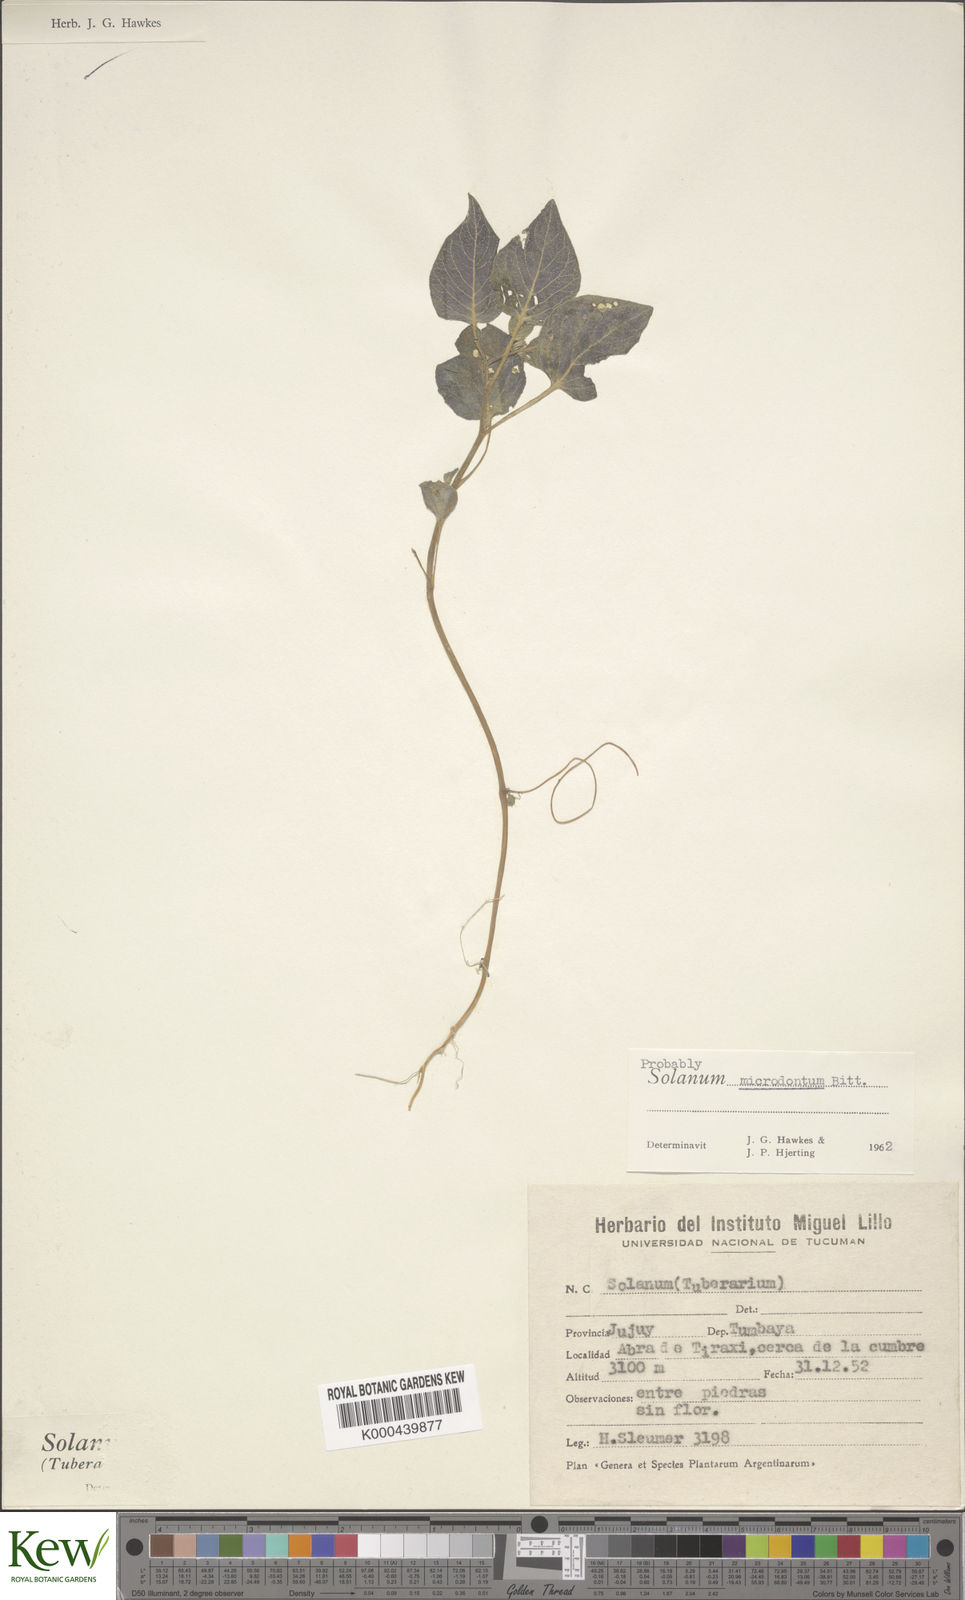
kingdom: Plantae
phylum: Tracheophyta
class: Magnoliopsida
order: Solanales
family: Solanaceae
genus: Solanum
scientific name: Solanum microdontum
